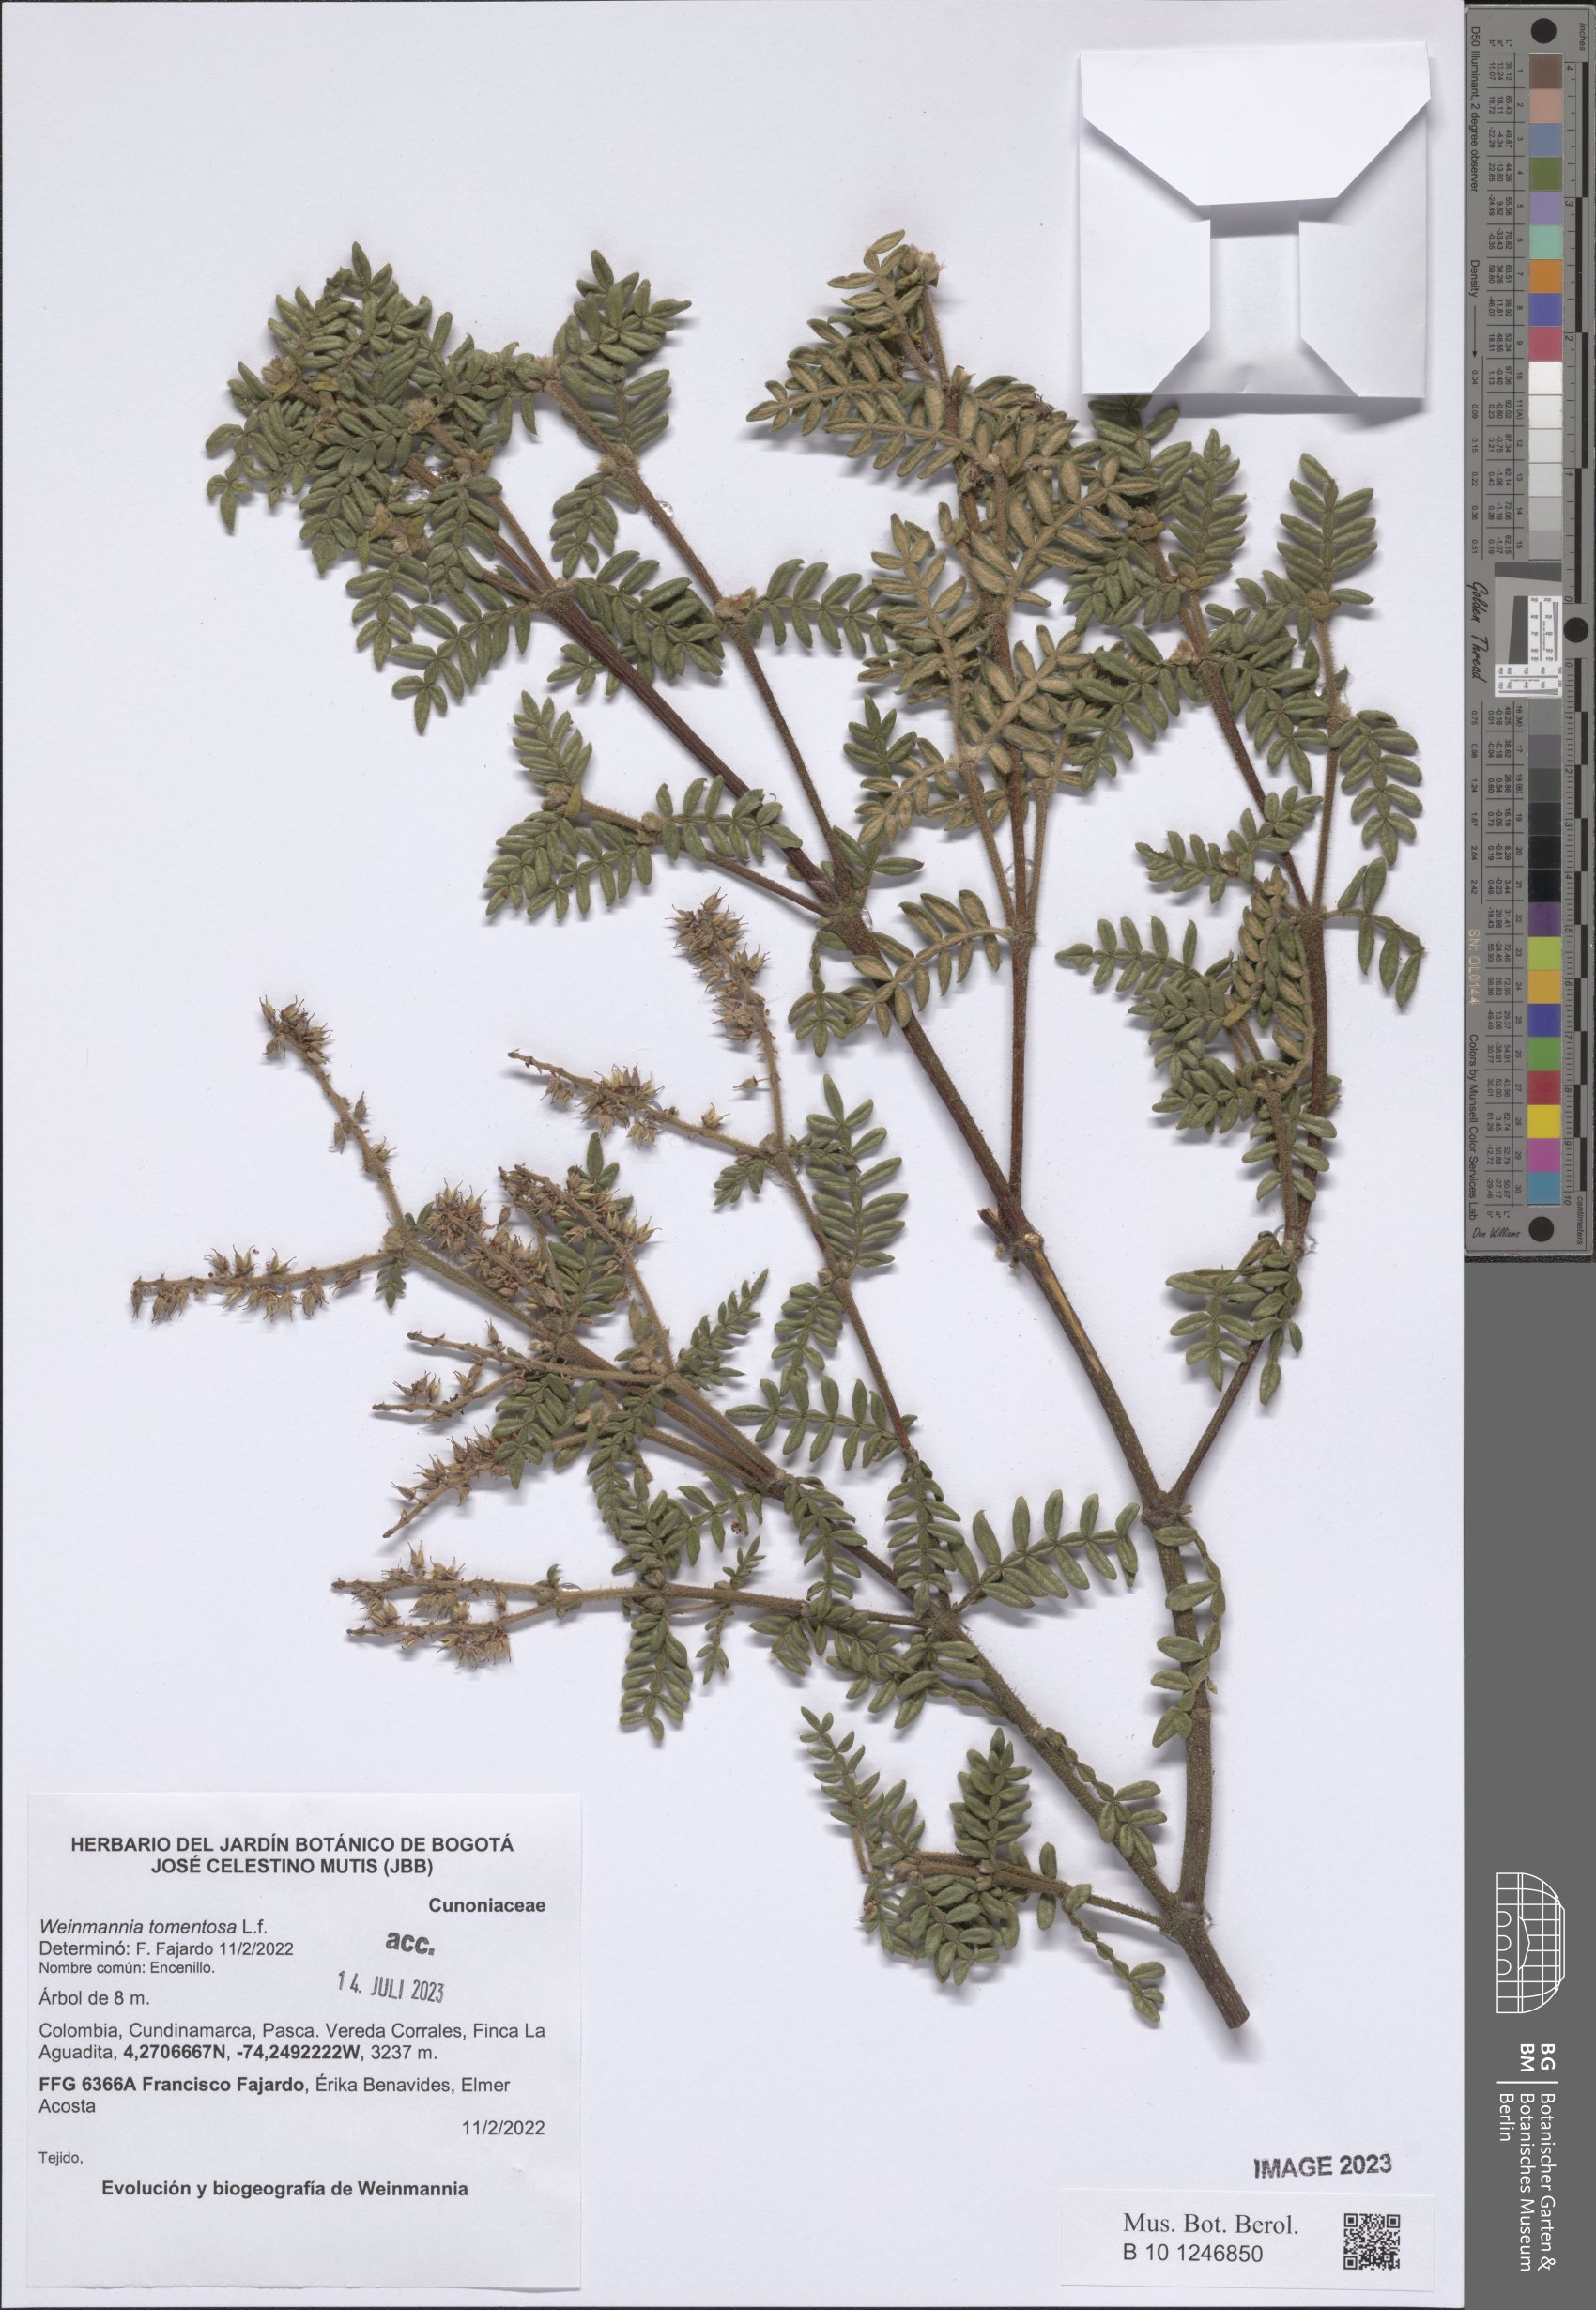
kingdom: Plantae
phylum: Tracheophyta
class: Magnoliopsida
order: Oxalidales
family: Cunoniaceae
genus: Weinmannia
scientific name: Weinmannia tomentosa
